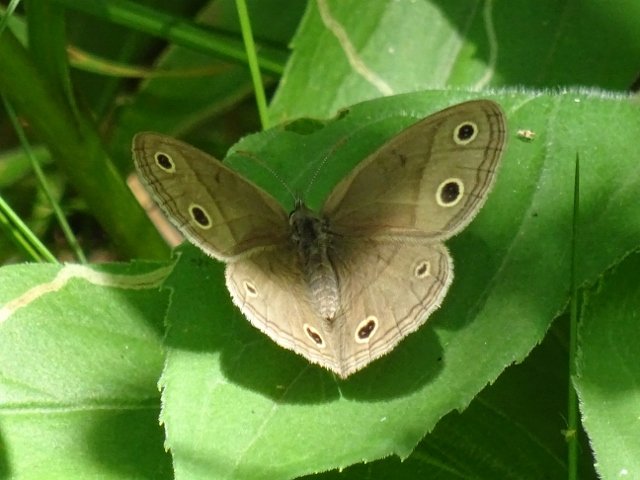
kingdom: Animalia
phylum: Arthropoda
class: Insecta
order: Lepidoptera
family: Nymphalidae
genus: Euptychia
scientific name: Euptychia cymela
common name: Little Wood Satyr
